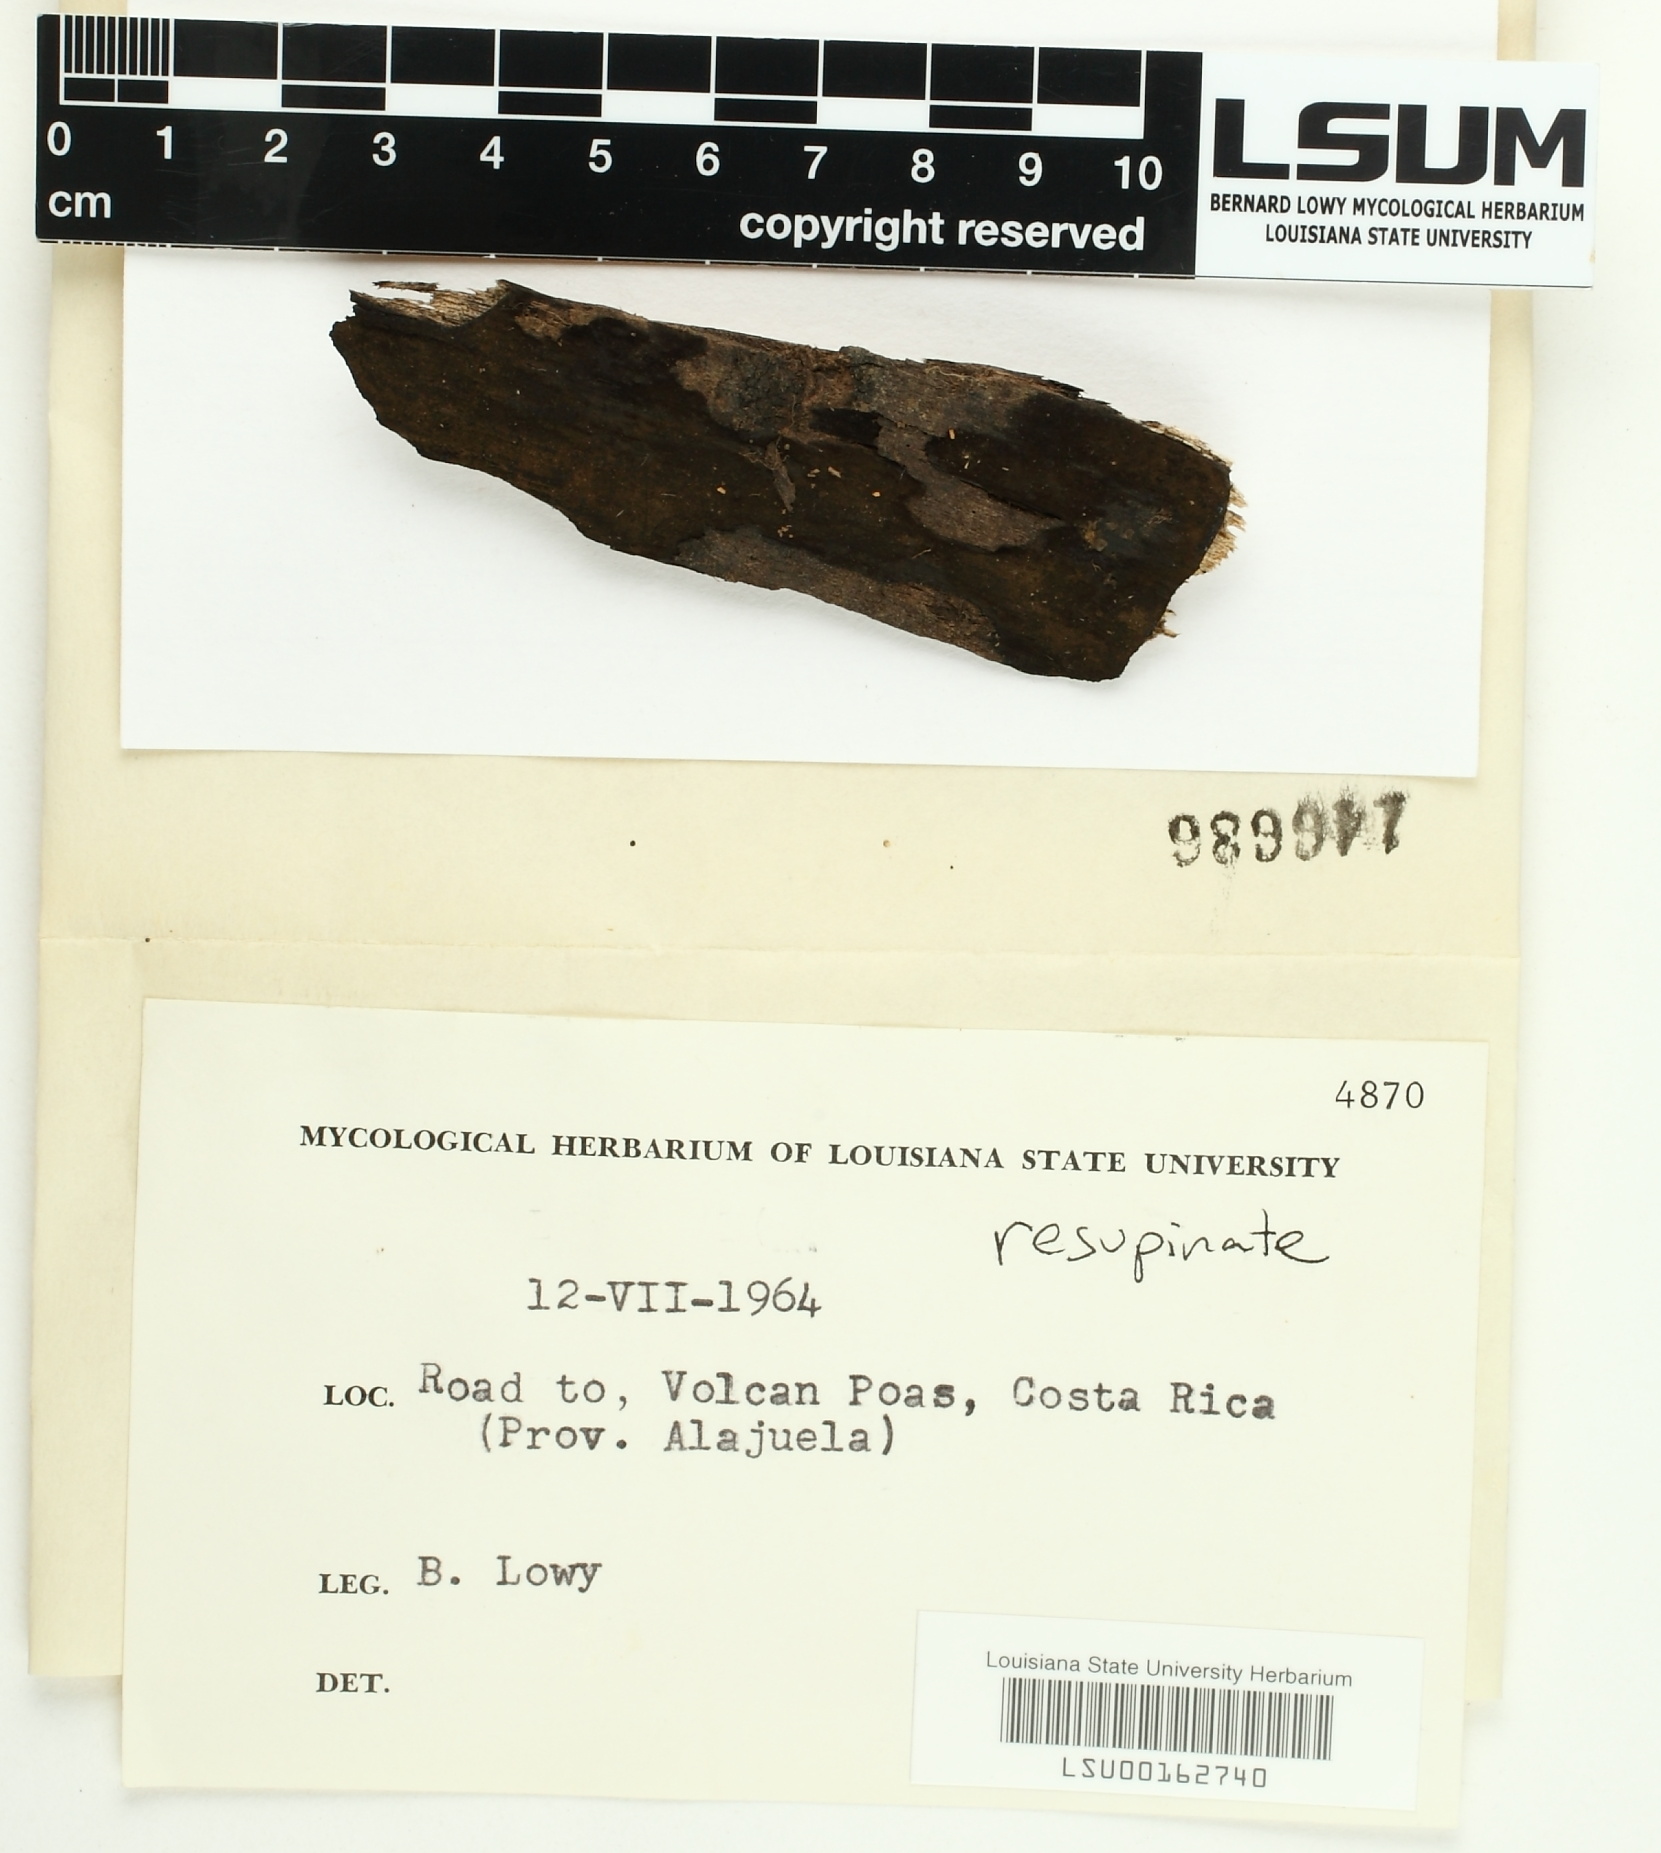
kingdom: Fungi
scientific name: Fungi
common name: Fungi
